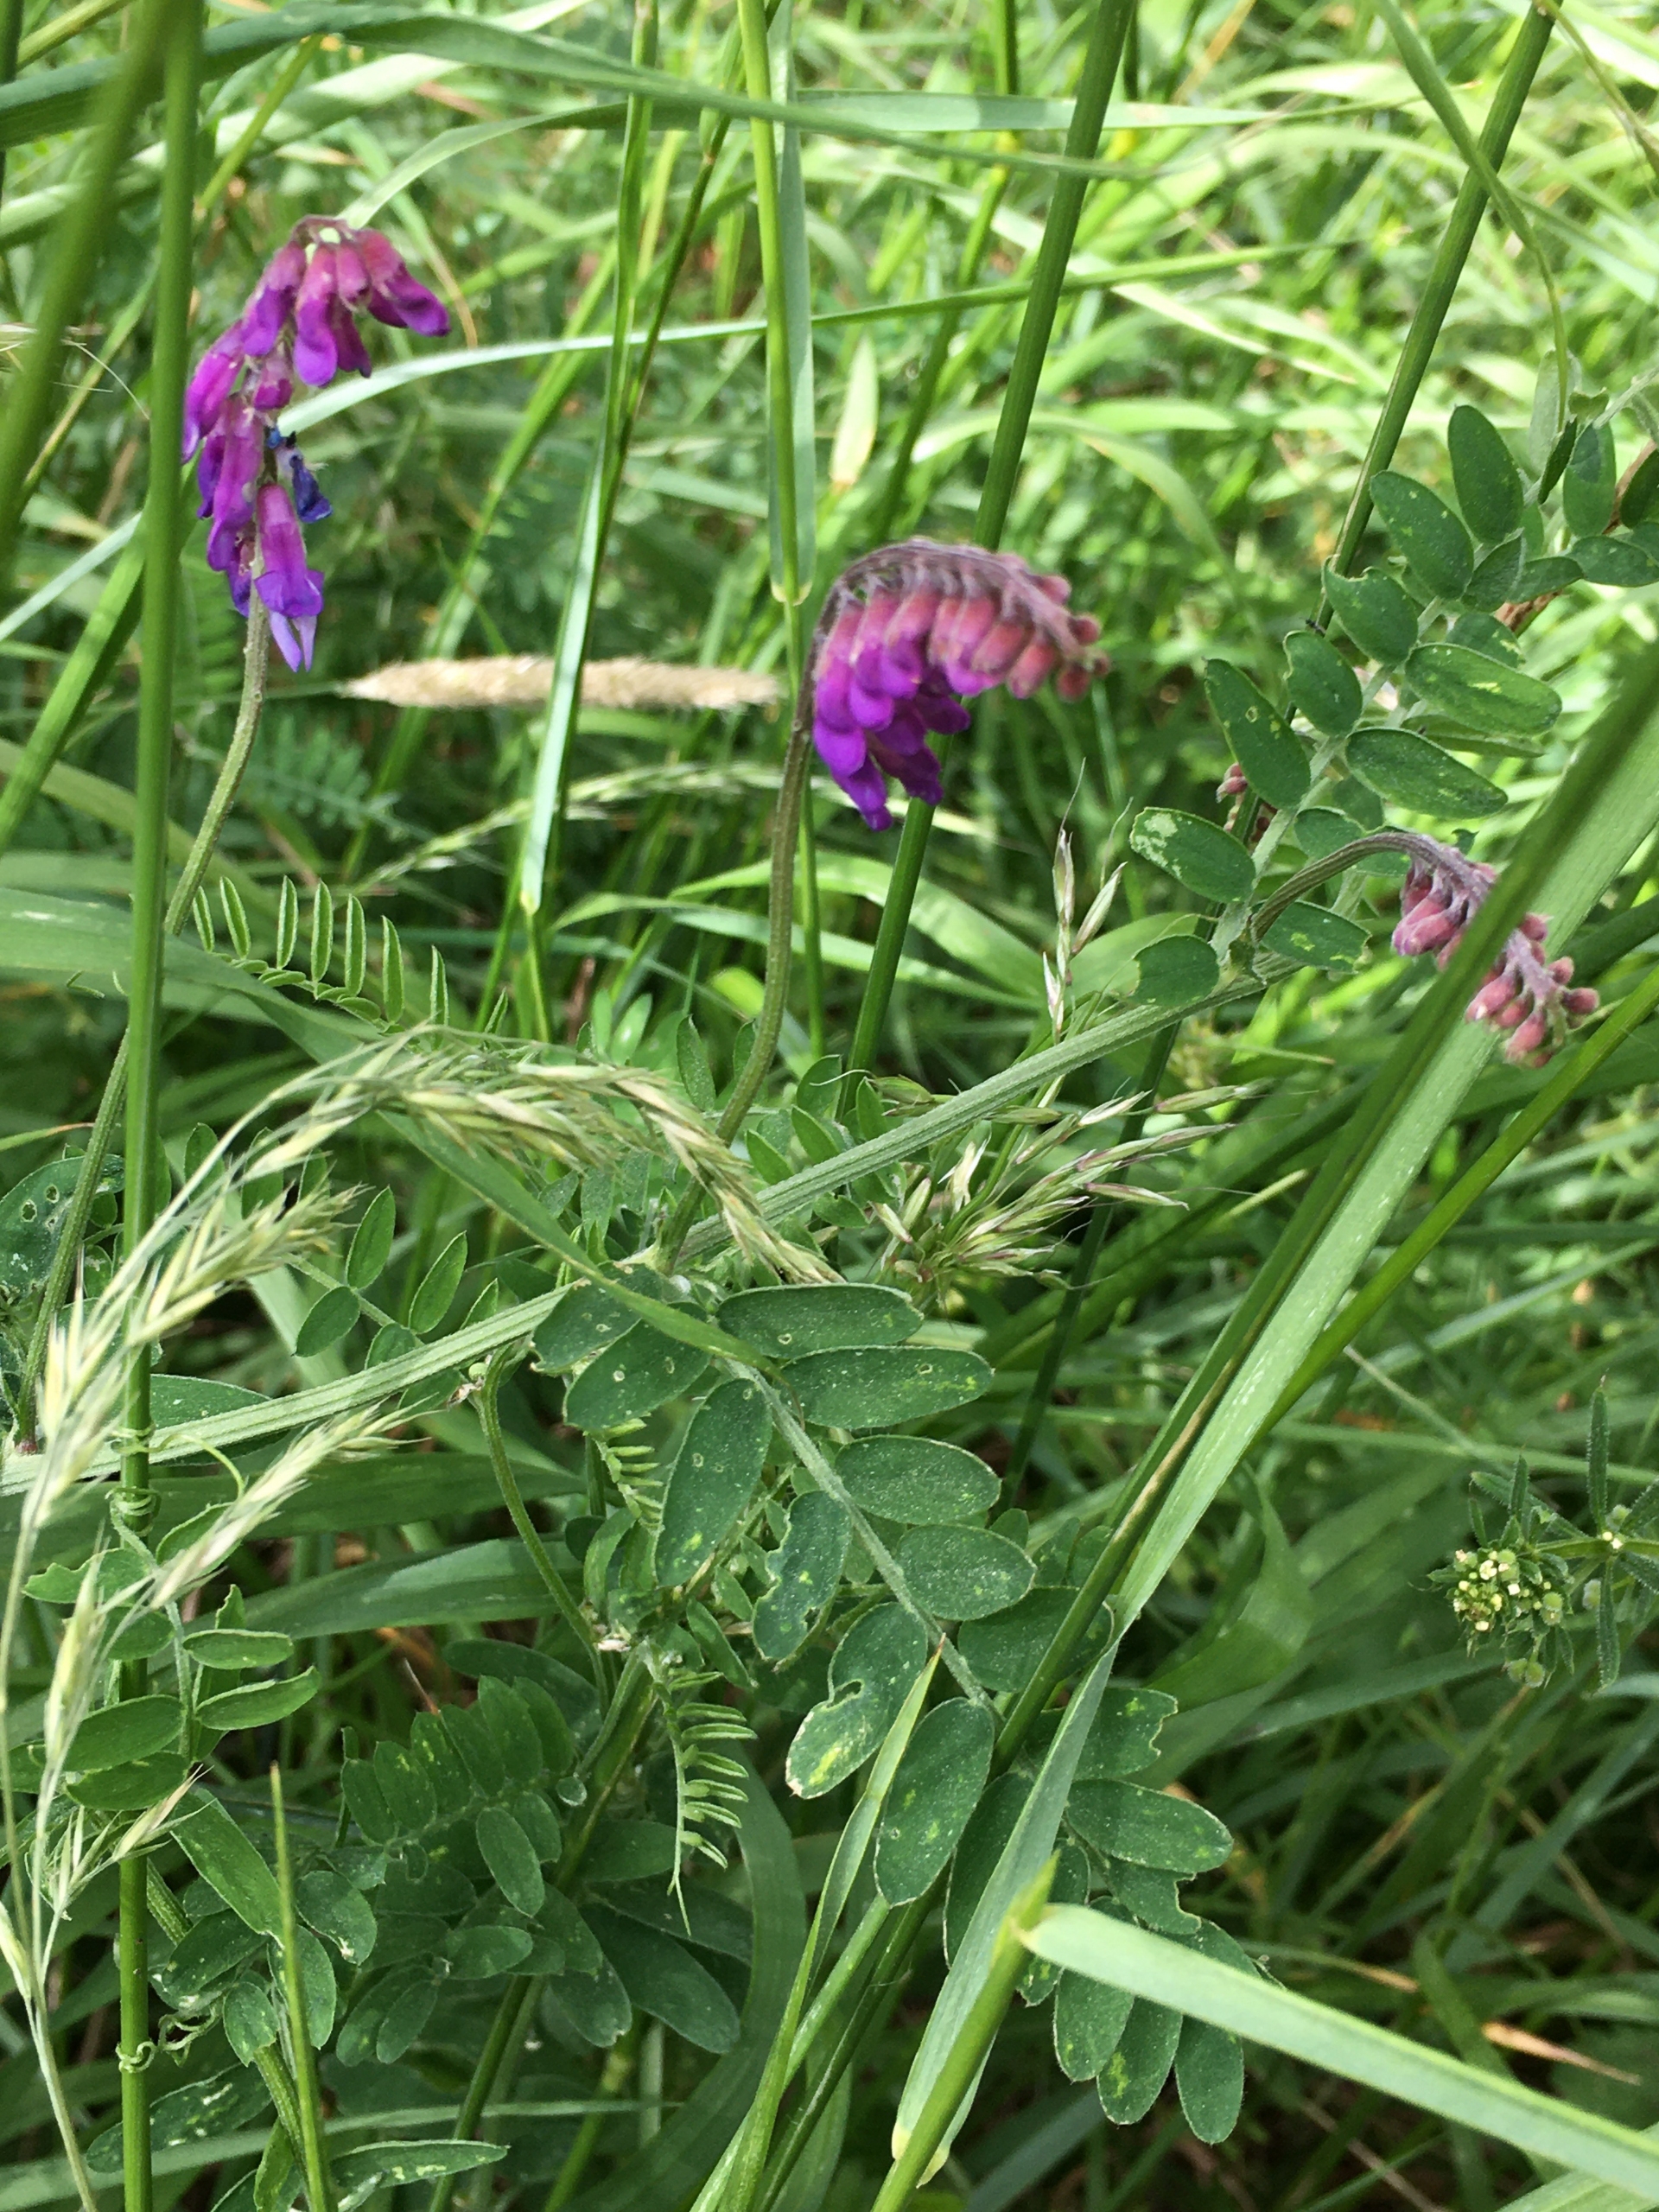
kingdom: Plantae
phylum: Tracheophyta
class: Magnoliopsida
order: Fabales
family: Fabaceae
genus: Vicia
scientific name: Vicia cracca
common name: Muse-vikke
